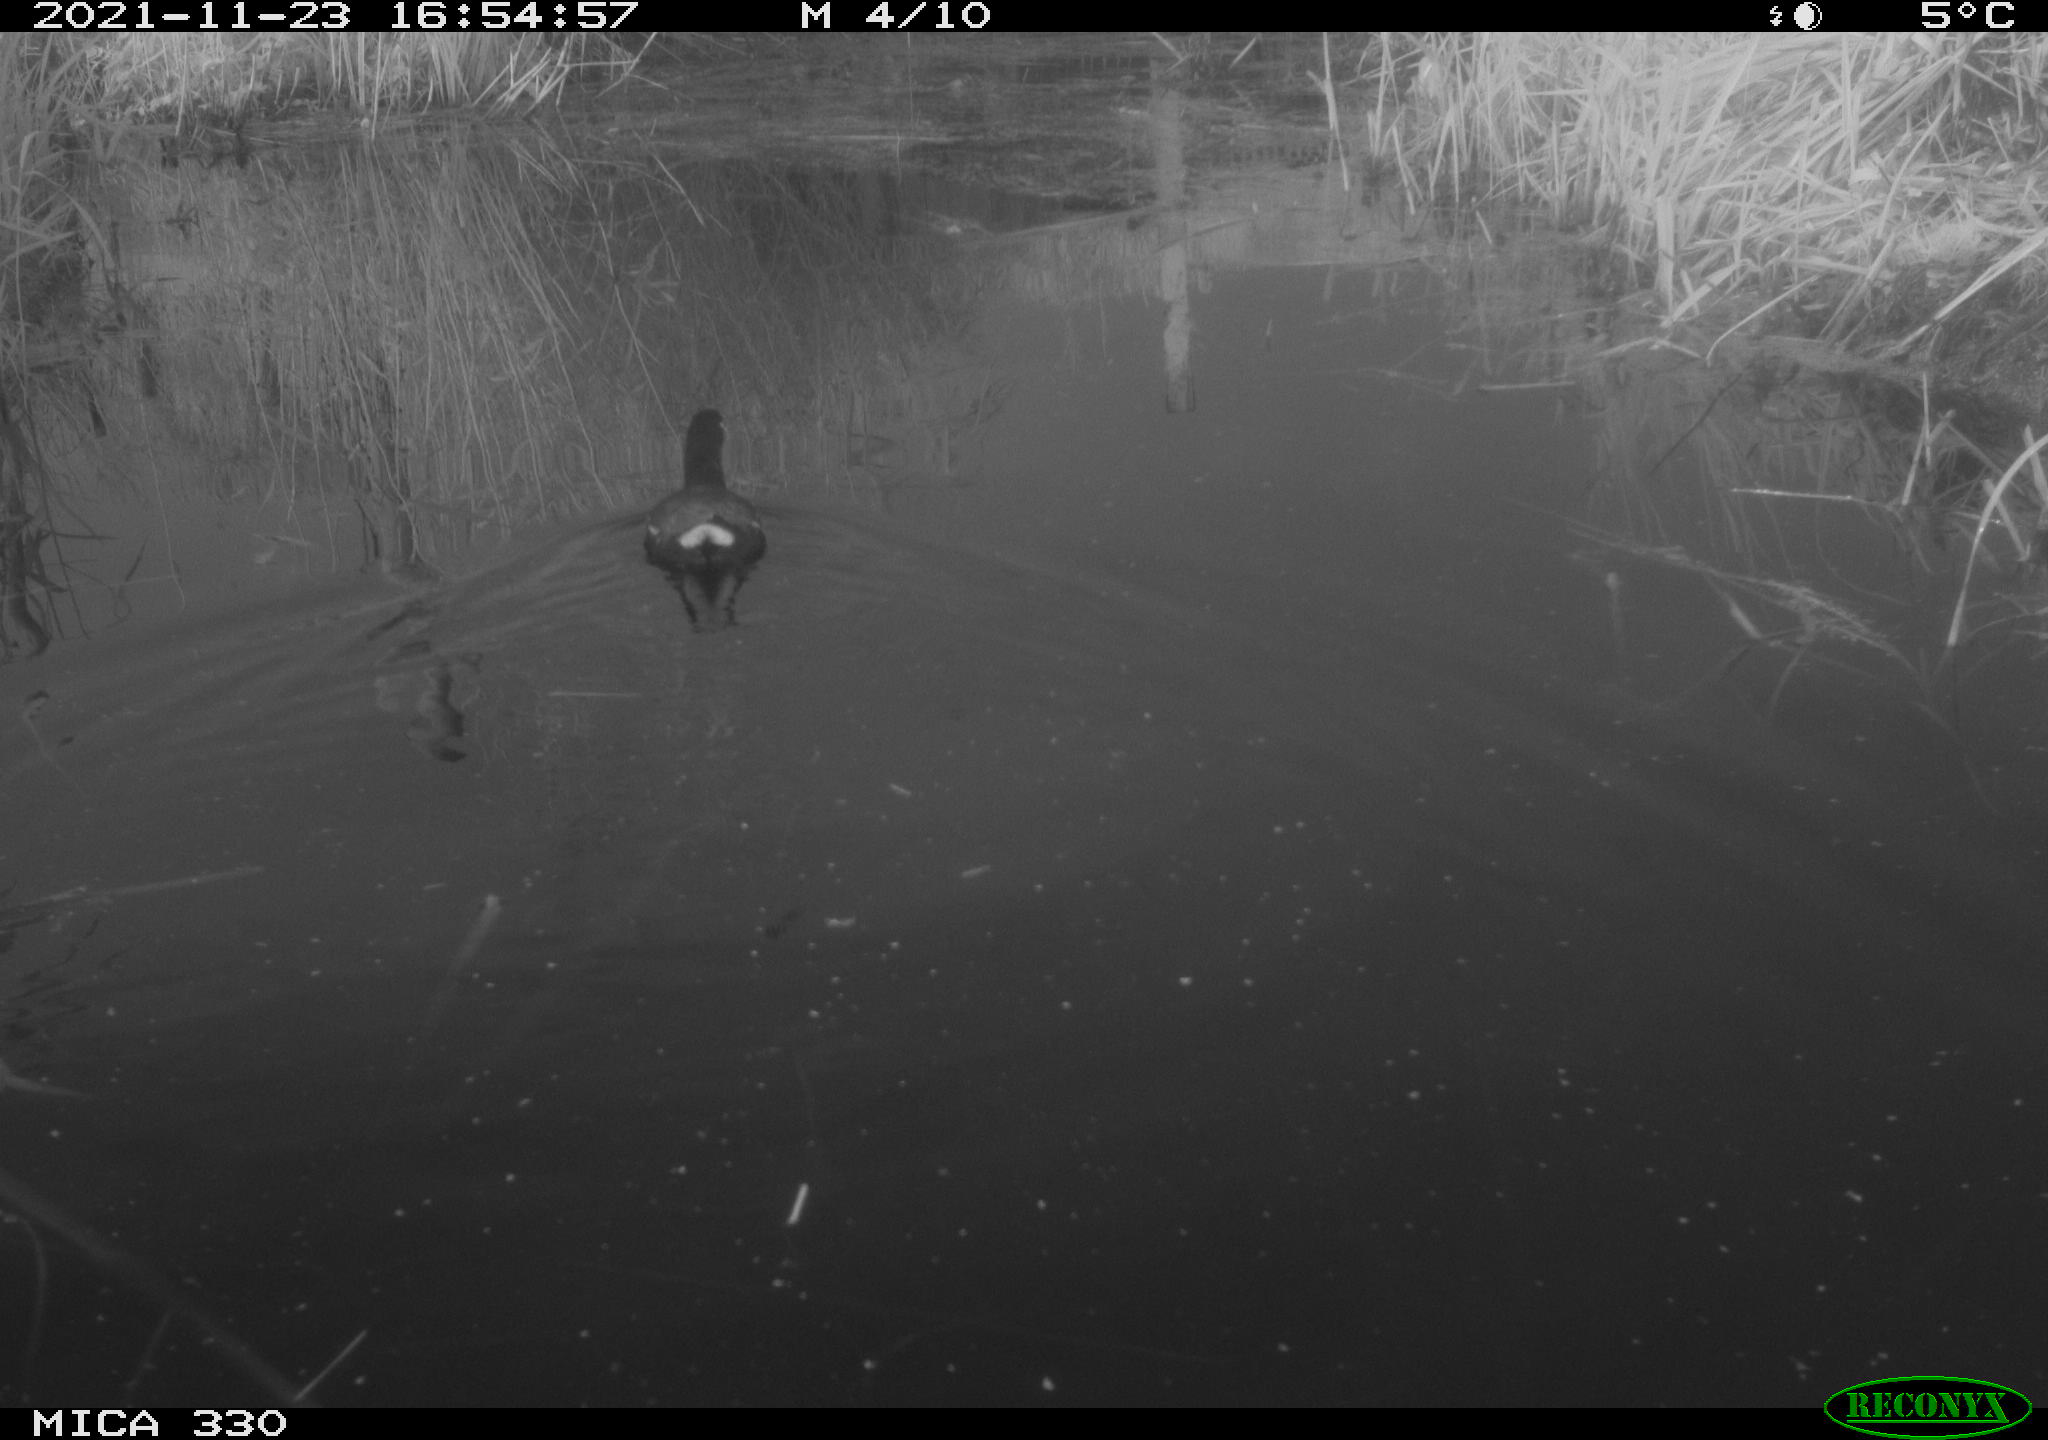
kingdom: Animalia
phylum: Chordata
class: Aves
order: Gruiformes
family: Rallidae
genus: Gallinula
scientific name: Gallinula chloropus
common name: Common moorhen
